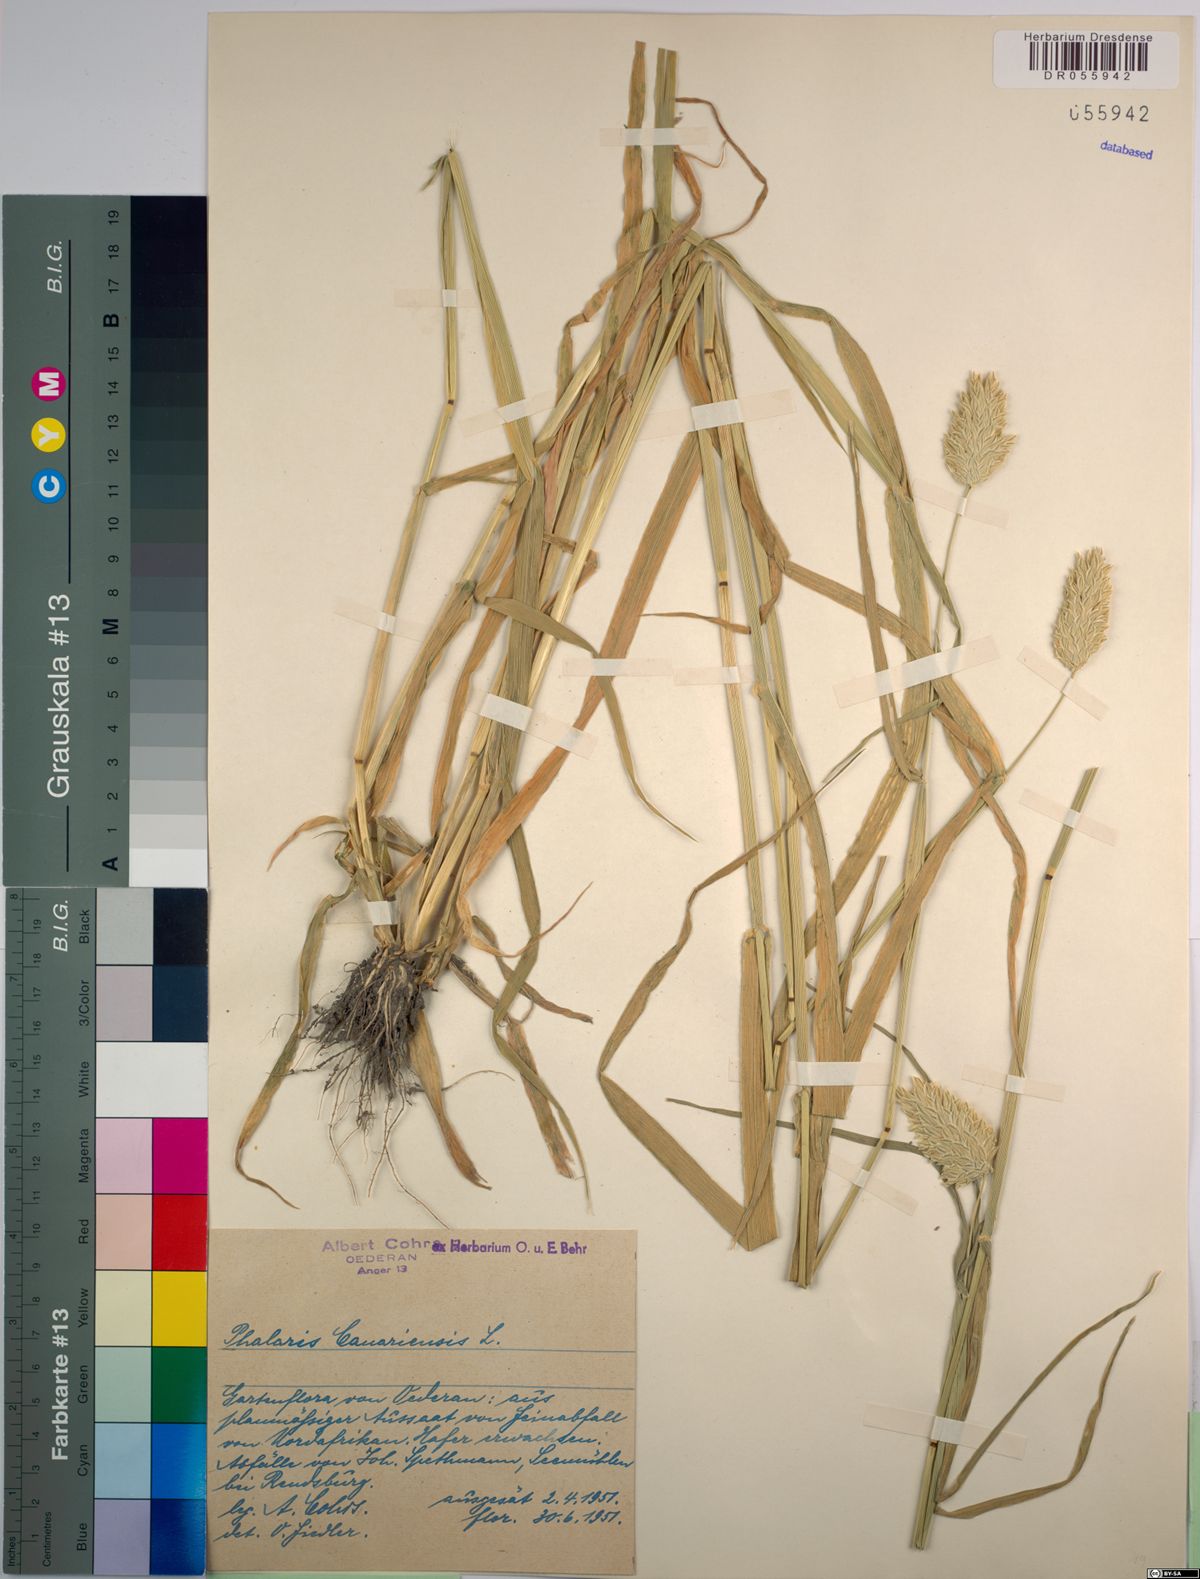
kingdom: Plantae
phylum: Tracheophyta
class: Liliopsida
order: Poales
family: Poaceae
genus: Phalaris
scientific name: Phalaris canariensis
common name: Annual canarygrass
